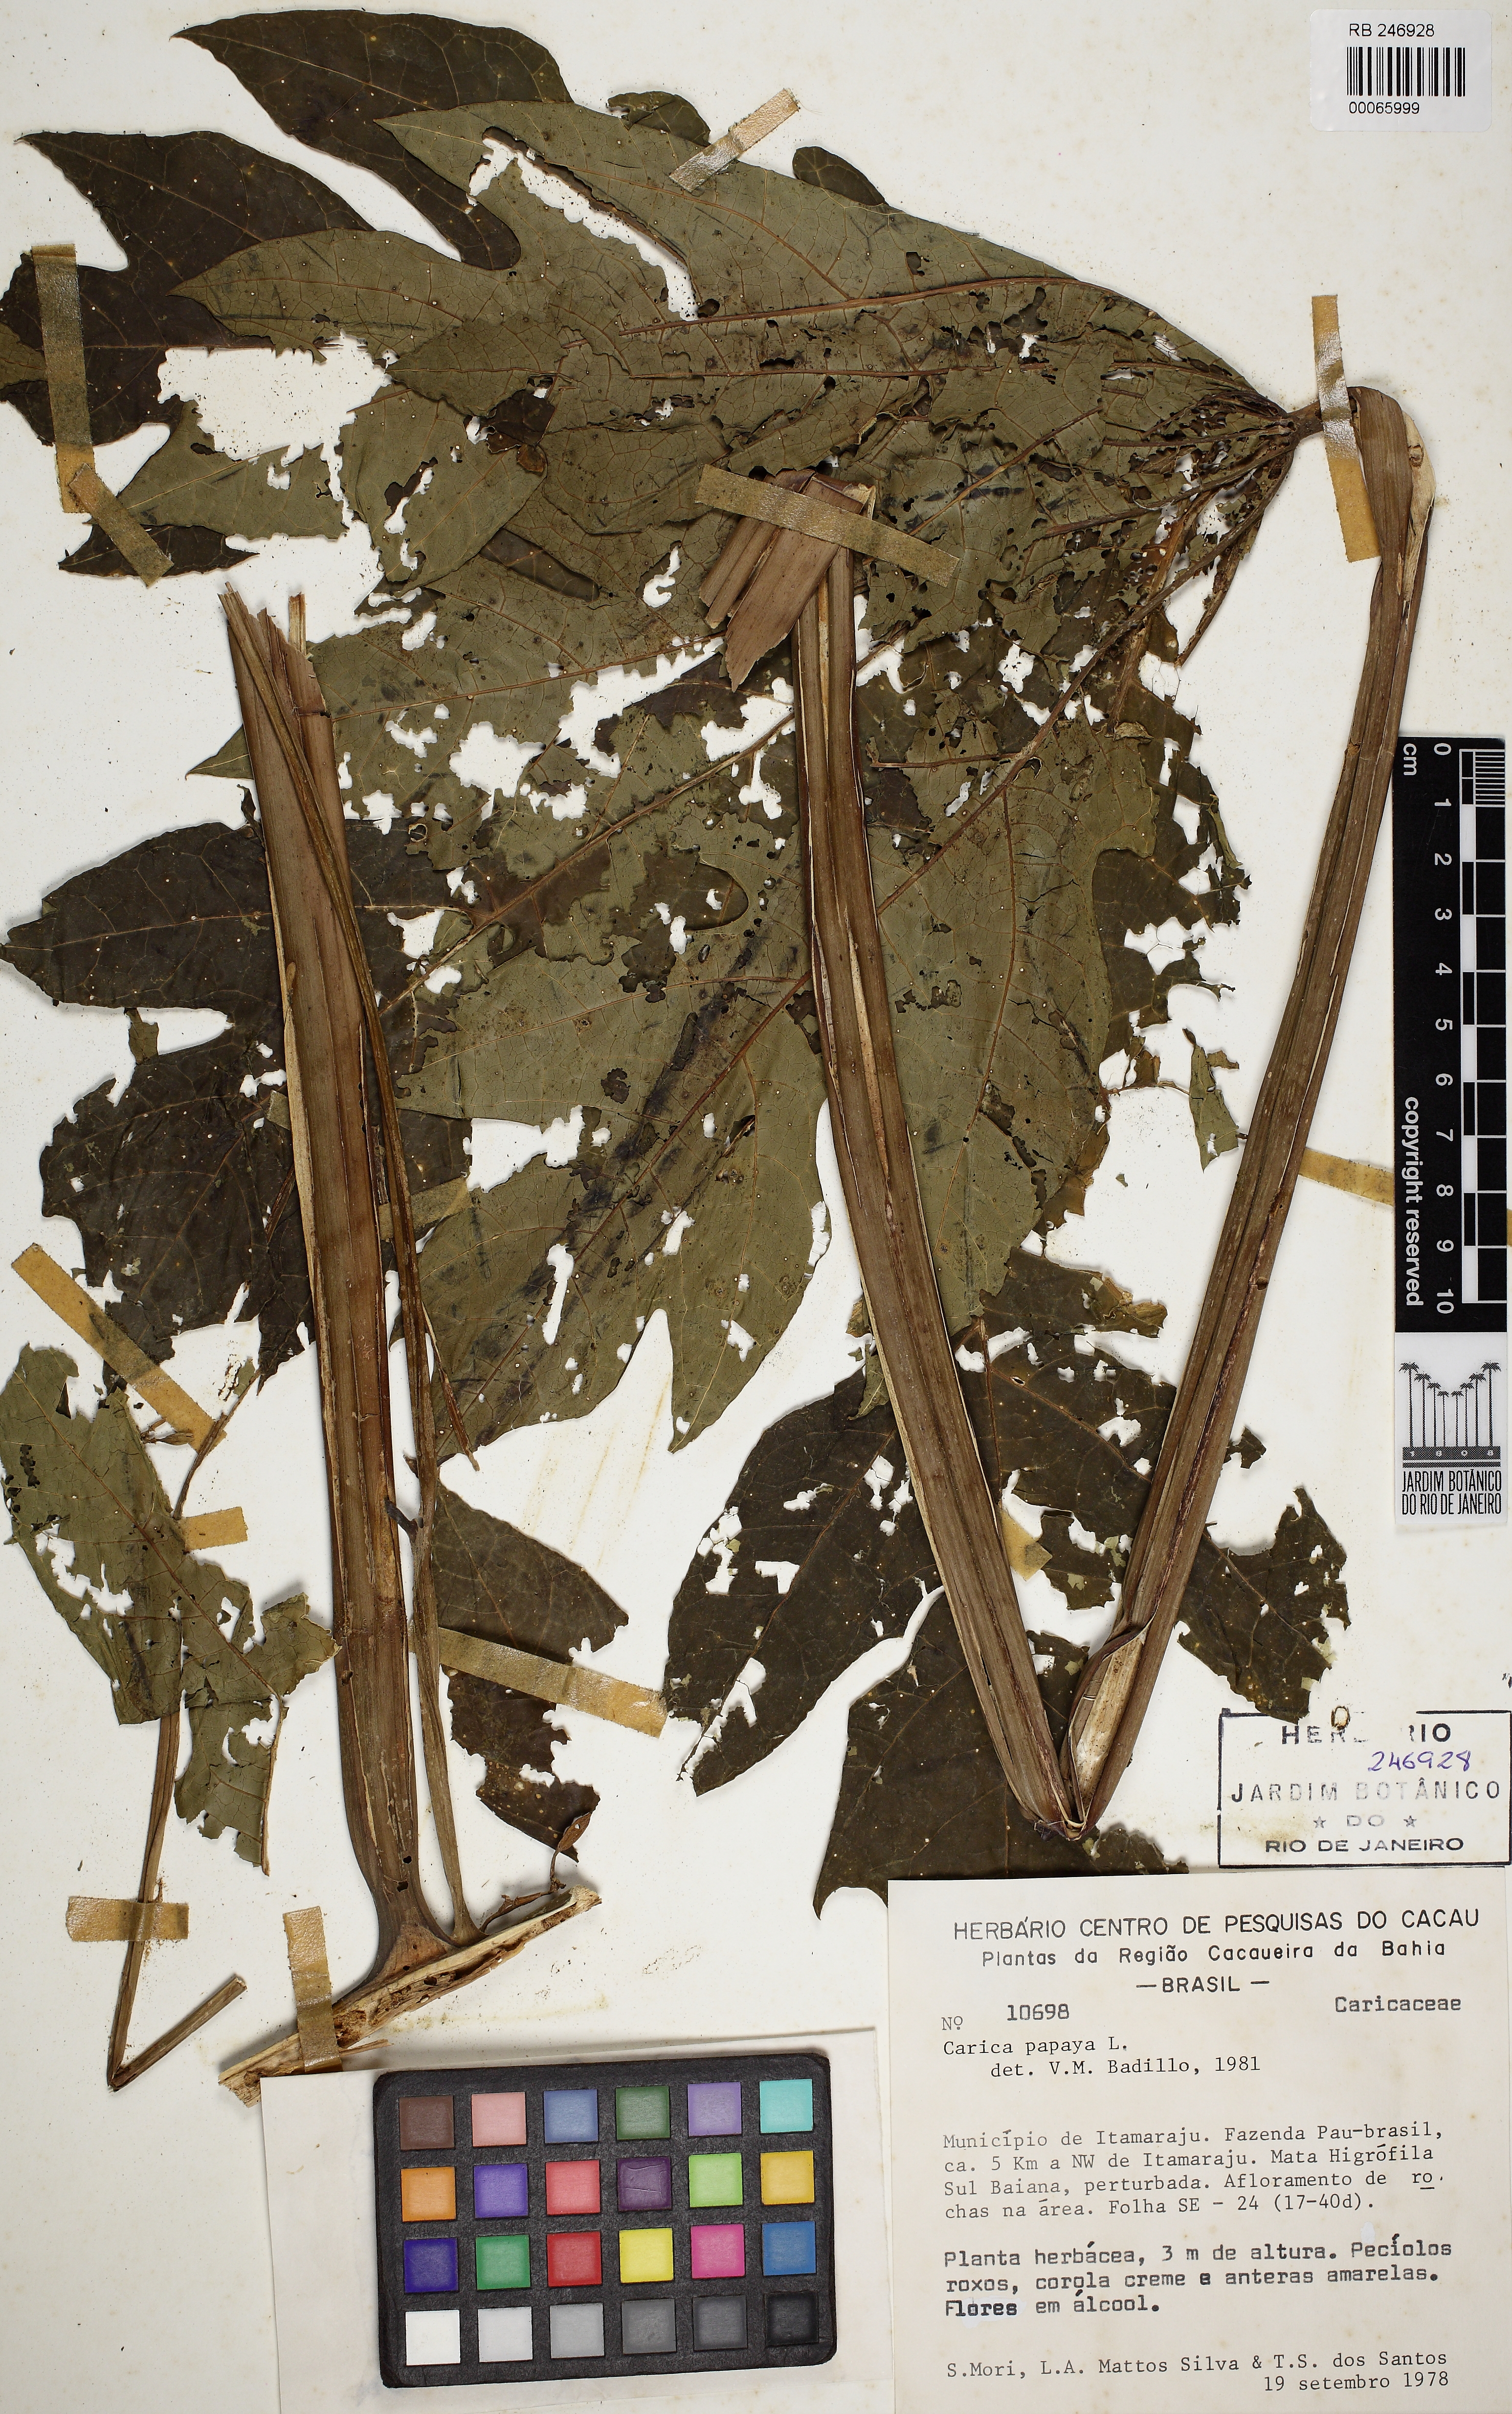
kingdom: Plantae
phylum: Tracheophyta
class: Magnoliopsida
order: Brassicales
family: Caricaceae
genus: Carica
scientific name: Carica papaya
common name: Papaya
